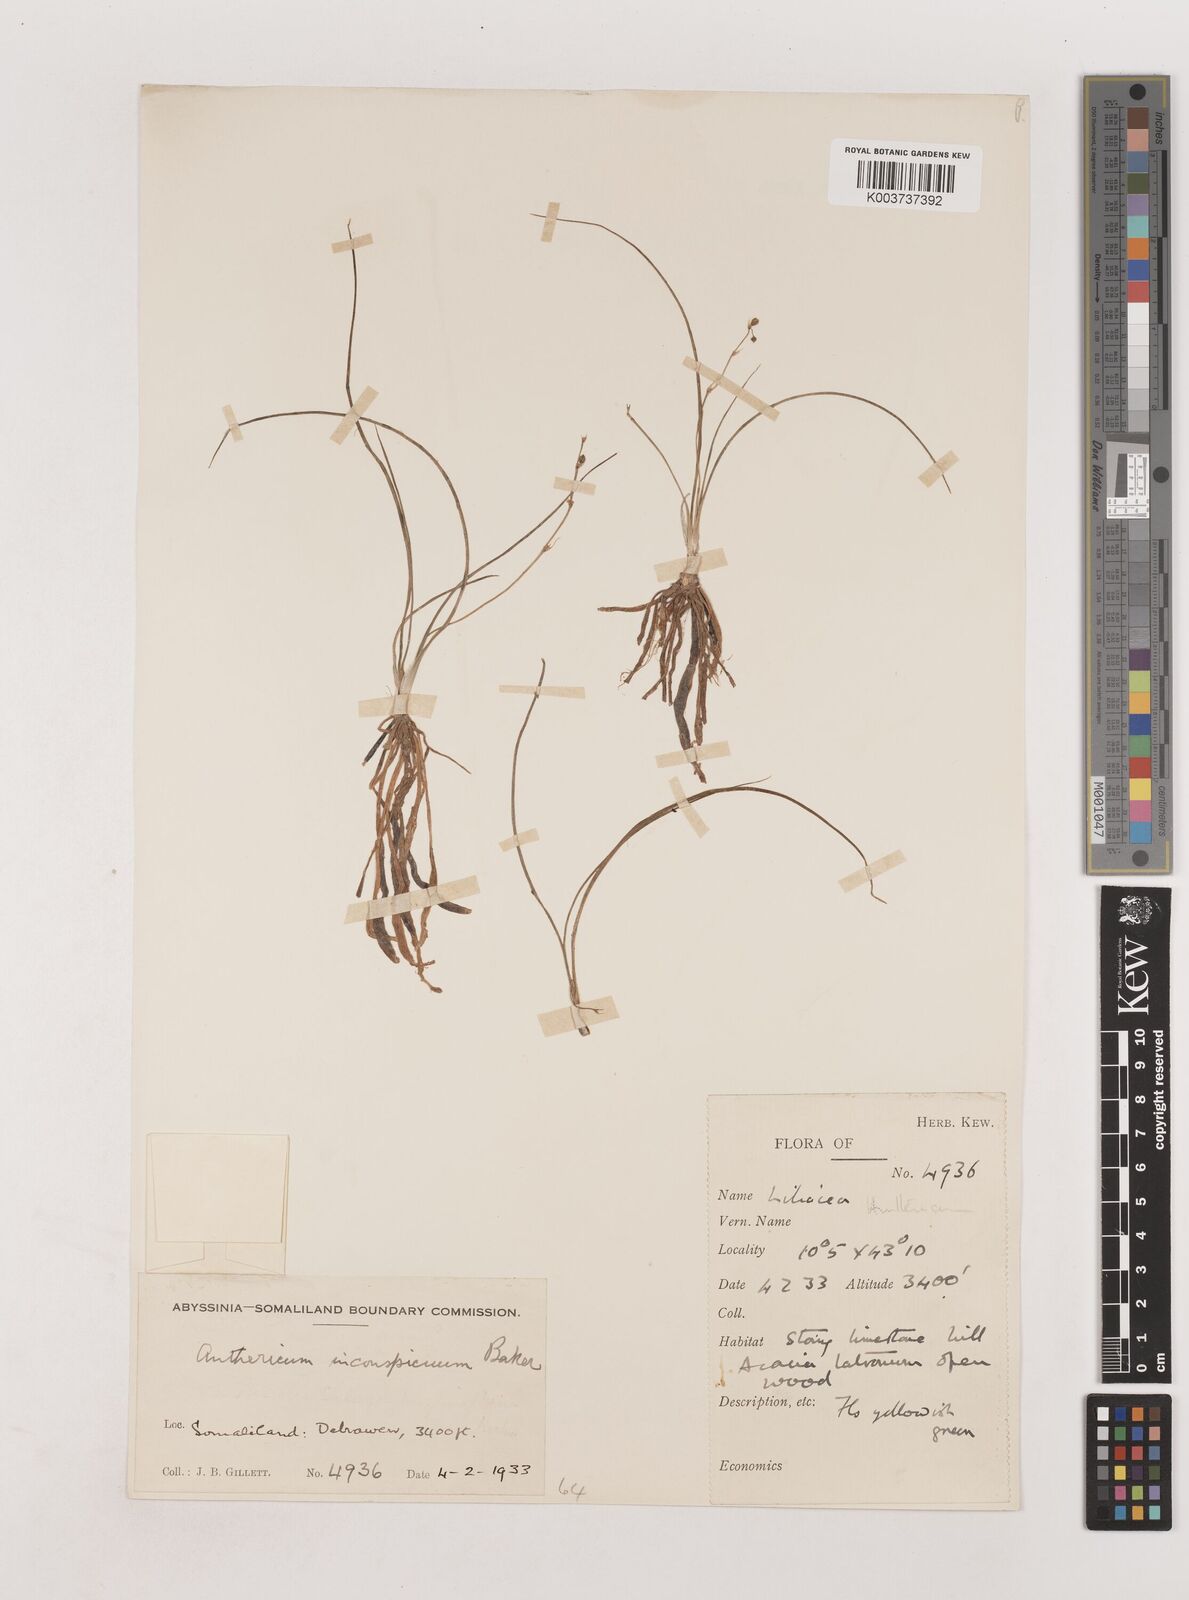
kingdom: Plantae
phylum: Tracheophyta
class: Liliopsida
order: Asparagales
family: Asparagaceae
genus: Chlorophytum
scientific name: Chlorophytum inconspicuum
